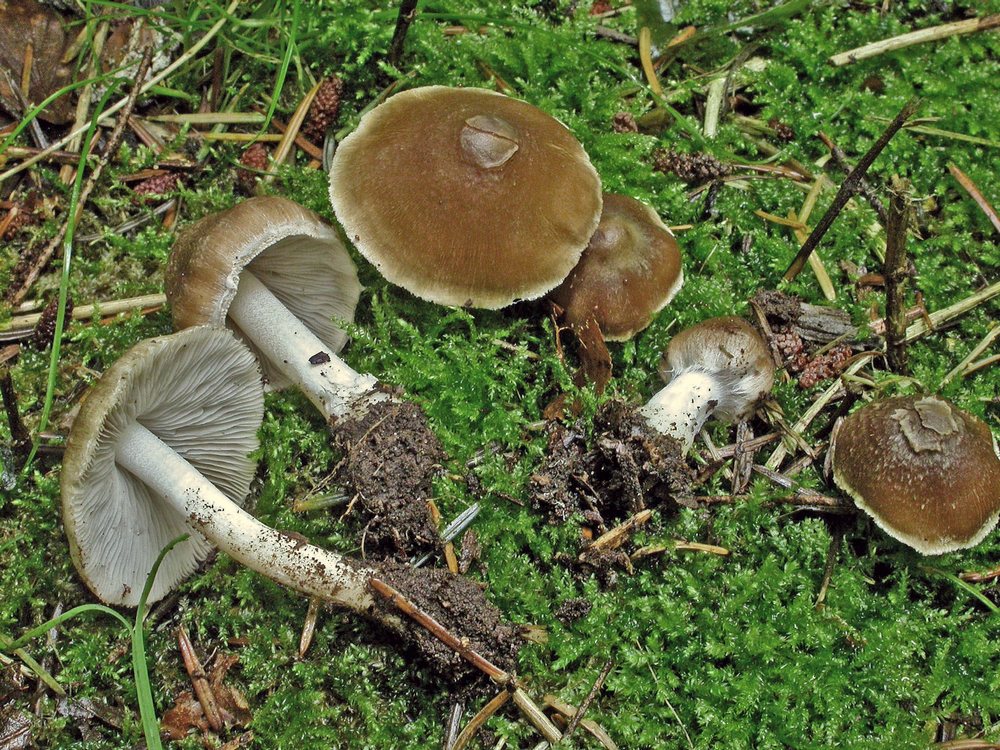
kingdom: Fungi
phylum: Basidiomycota
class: Agaricomycetes
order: Agaricales
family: Inocybaceae
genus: Inocybe
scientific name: Inocybe
